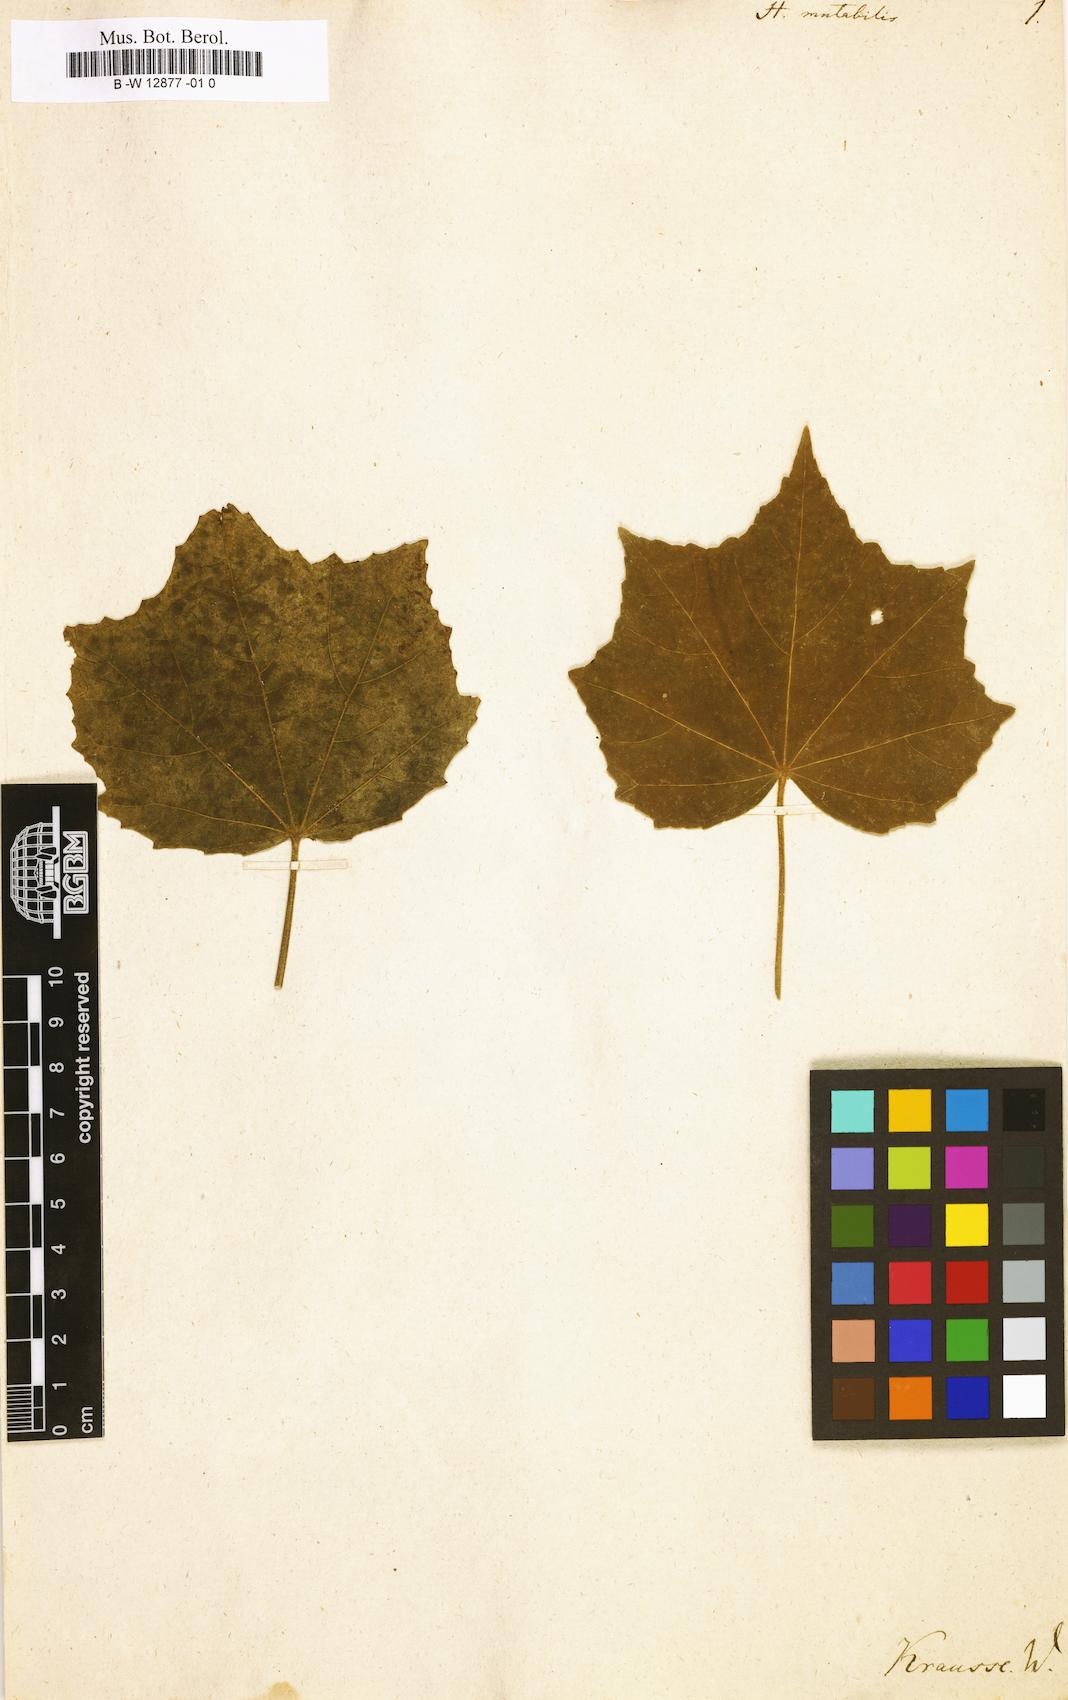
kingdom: Plantae
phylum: Tracheophyta
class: Magnoliopsida
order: Malvales
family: Malvaceae
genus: Hibiscus
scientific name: Hibiscus mutabilis
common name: Dixie rosemallow
